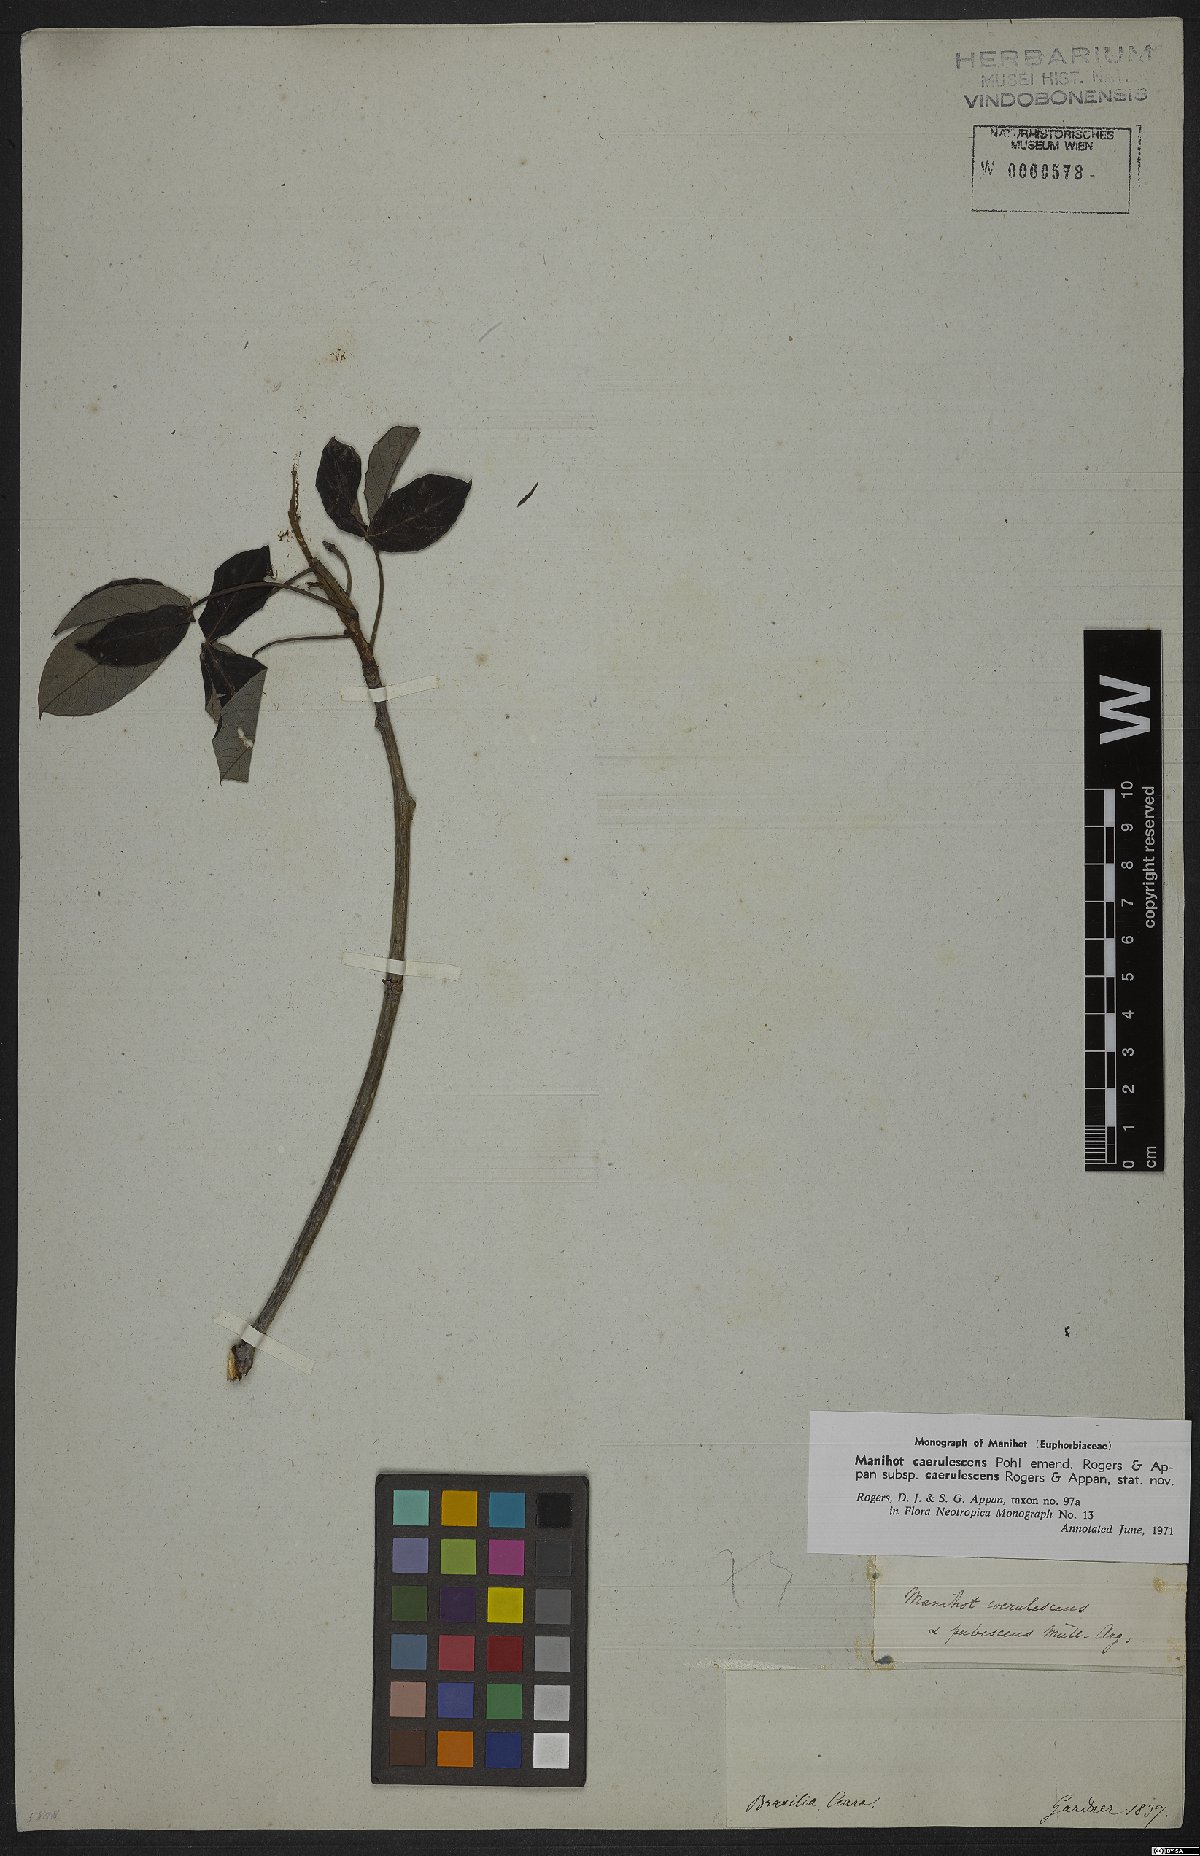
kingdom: Plantae
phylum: Tracheophyta
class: Magnoliopsida
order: Malpighiales
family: Euphorbiaceae
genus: Manihot
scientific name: Manihot caerulescens
